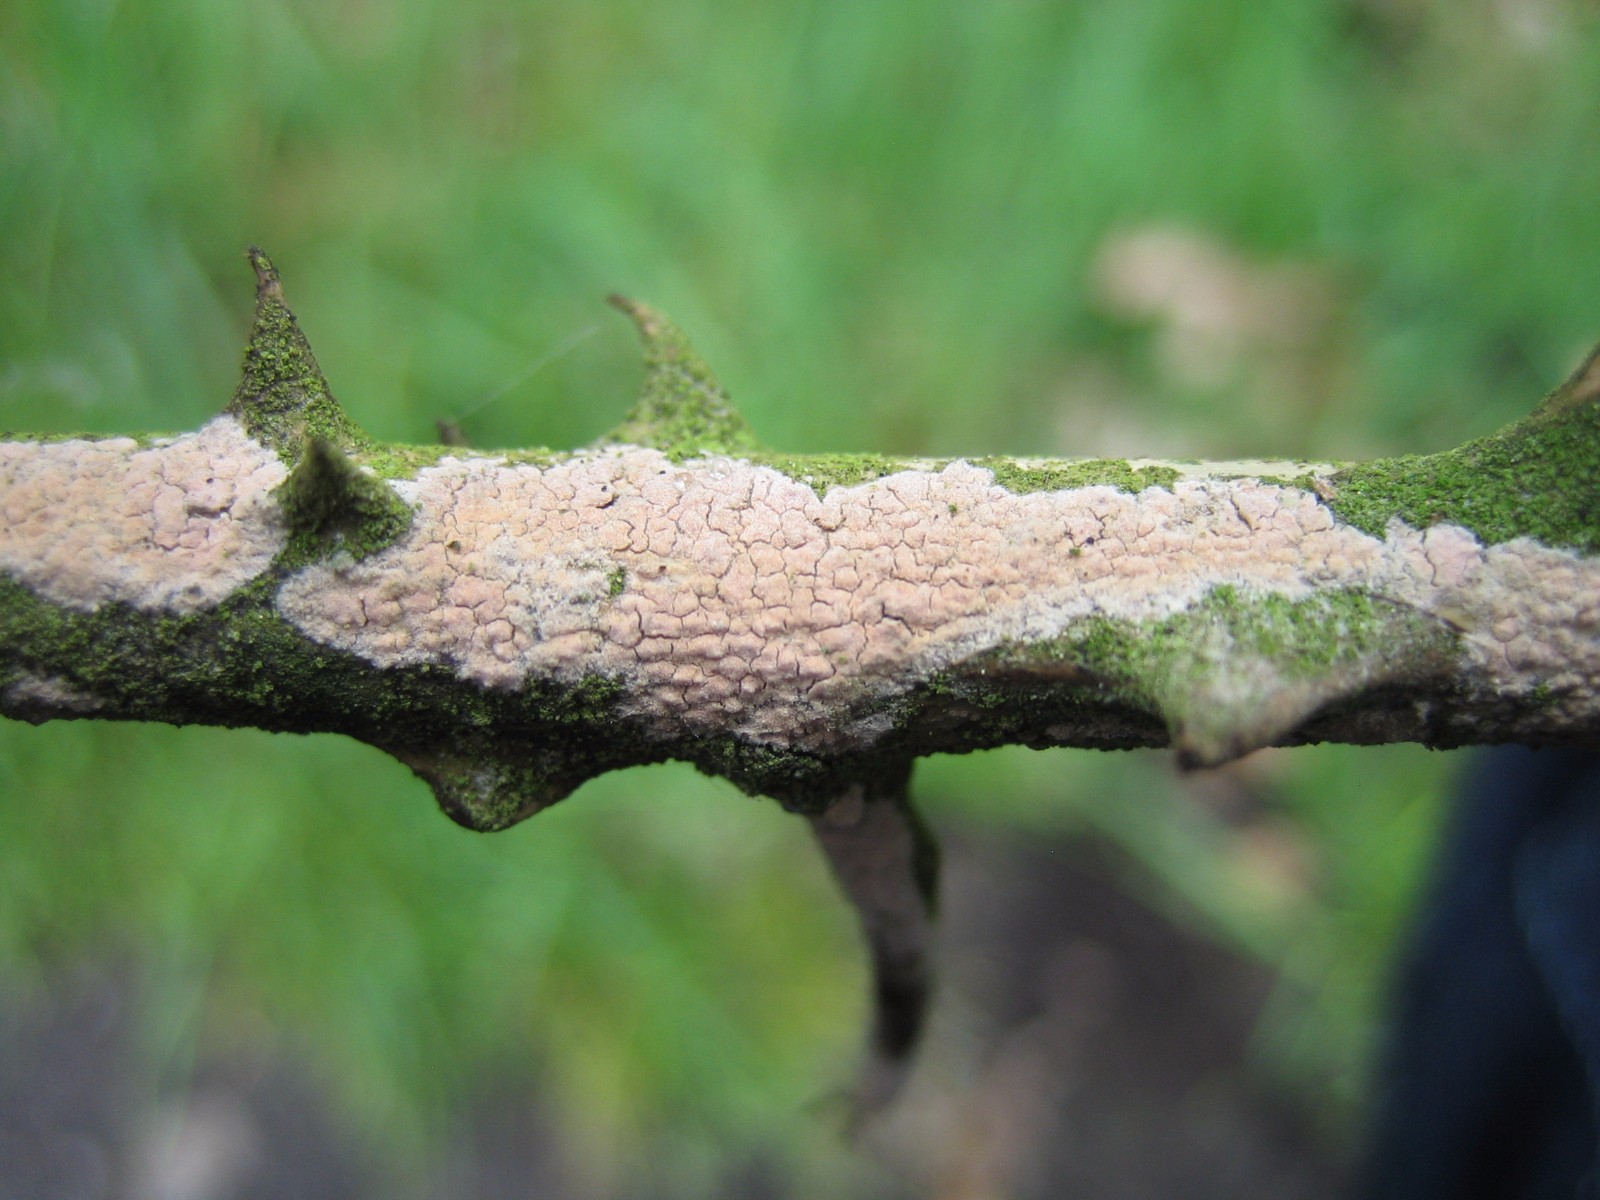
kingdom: Fungi
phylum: Basidiomycota
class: Agaricomycetes
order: Corticiales
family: Corticiaceae
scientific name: Corticiaceae
